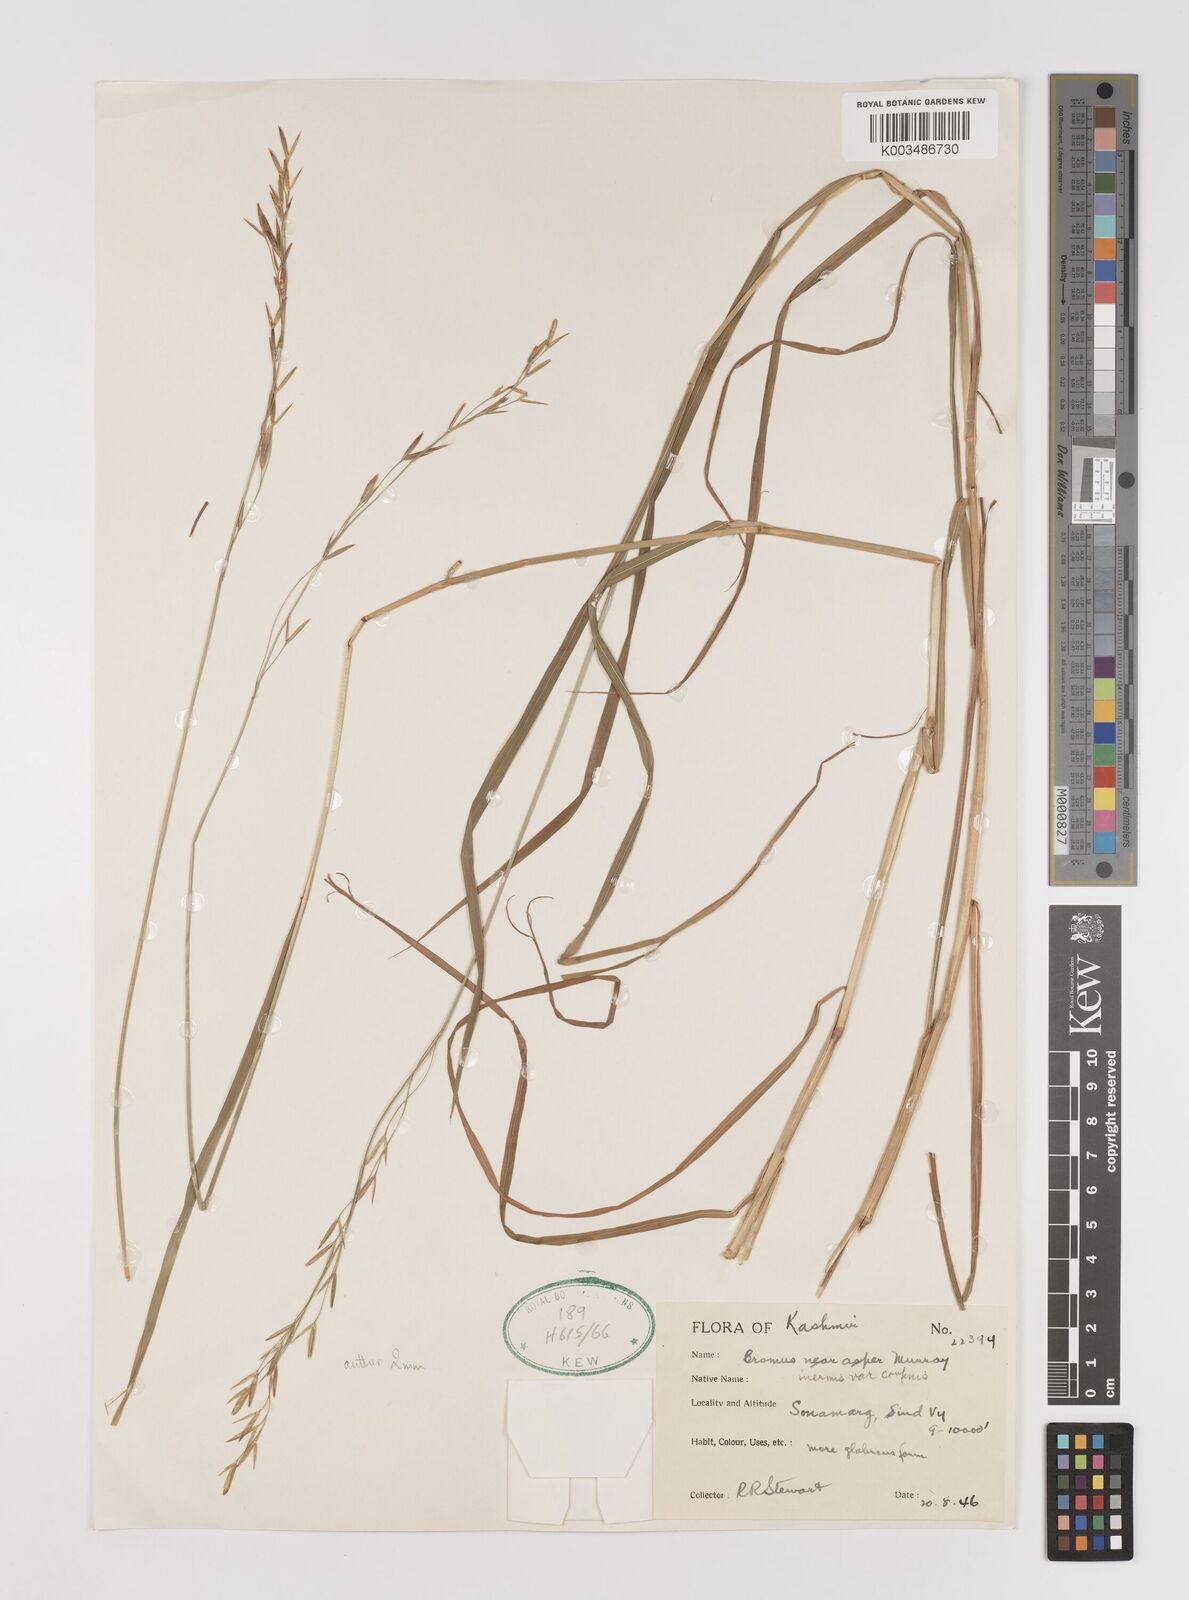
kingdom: Plantae
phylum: Tracheophyta
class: Liliopsida
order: Poales
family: Poaceae
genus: Brachypodium
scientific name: Brachypodium retusum
